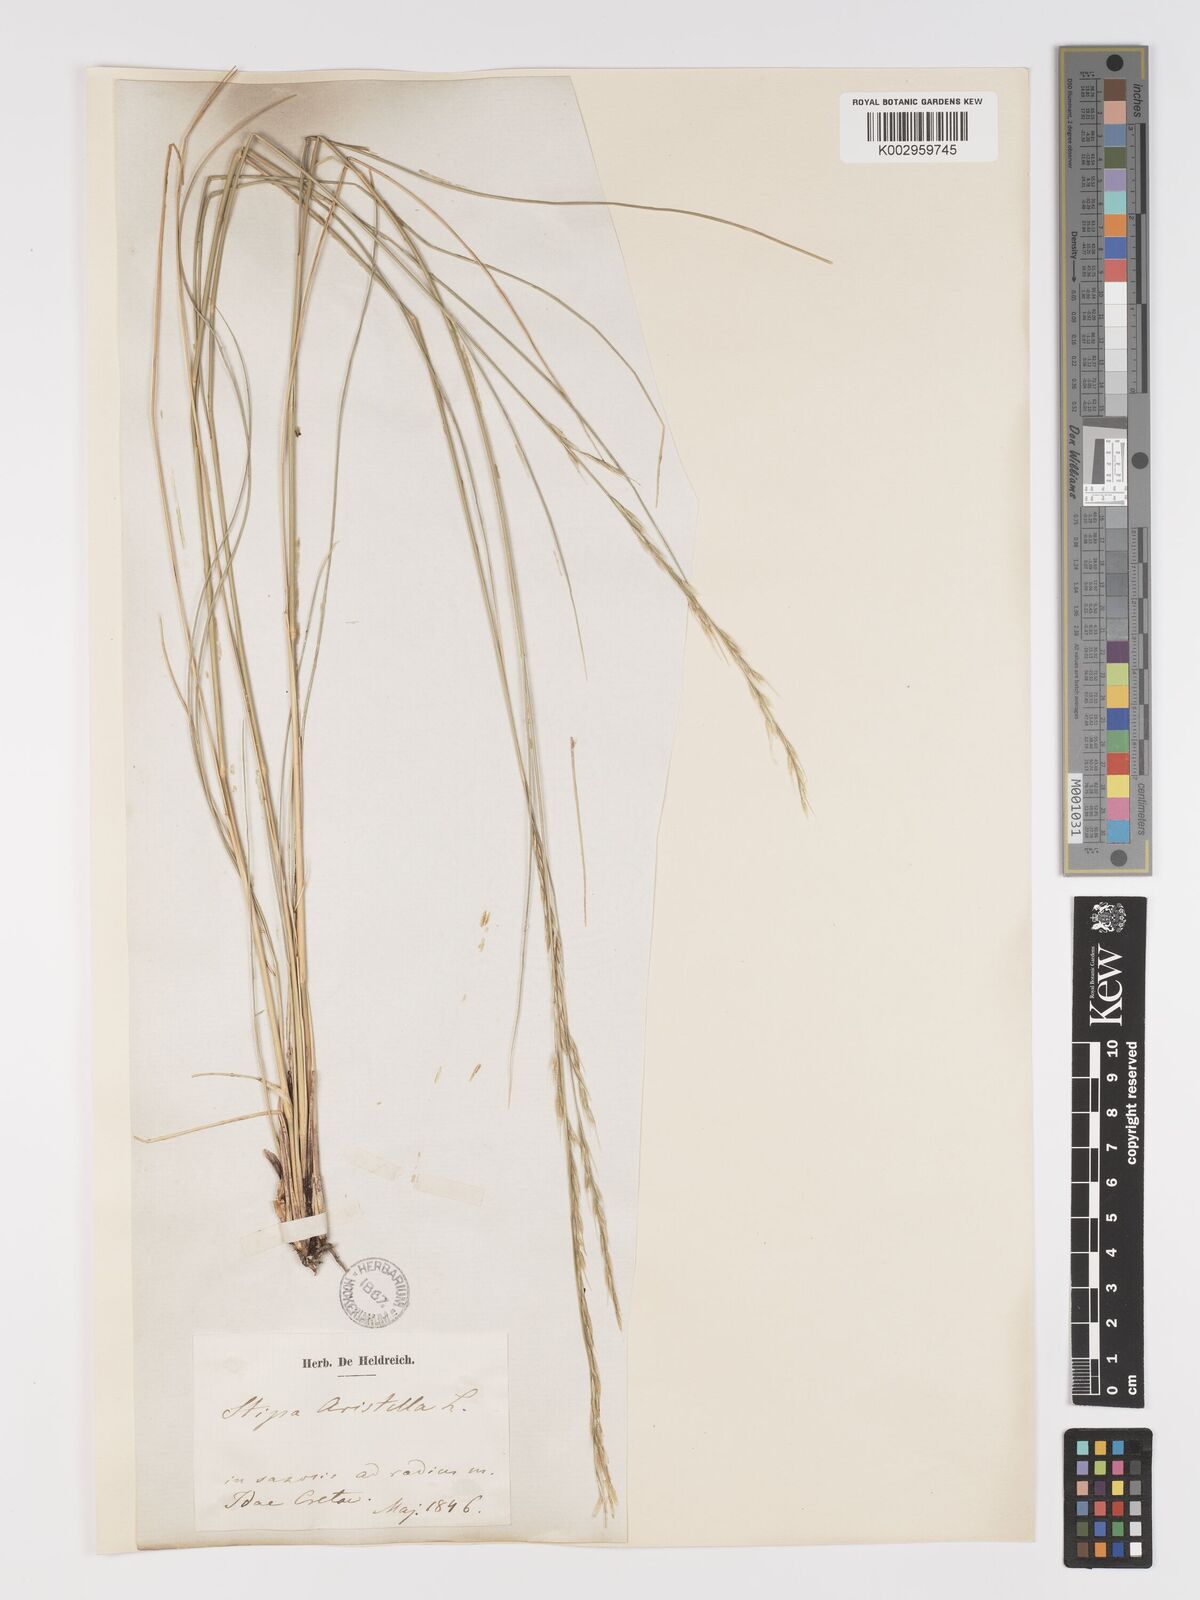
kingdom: Plantae
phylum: Tracheophyta
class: Liliopsida
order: Poales
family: Poaceae
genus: Achnatherum
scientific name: Achnatherum bromoides
